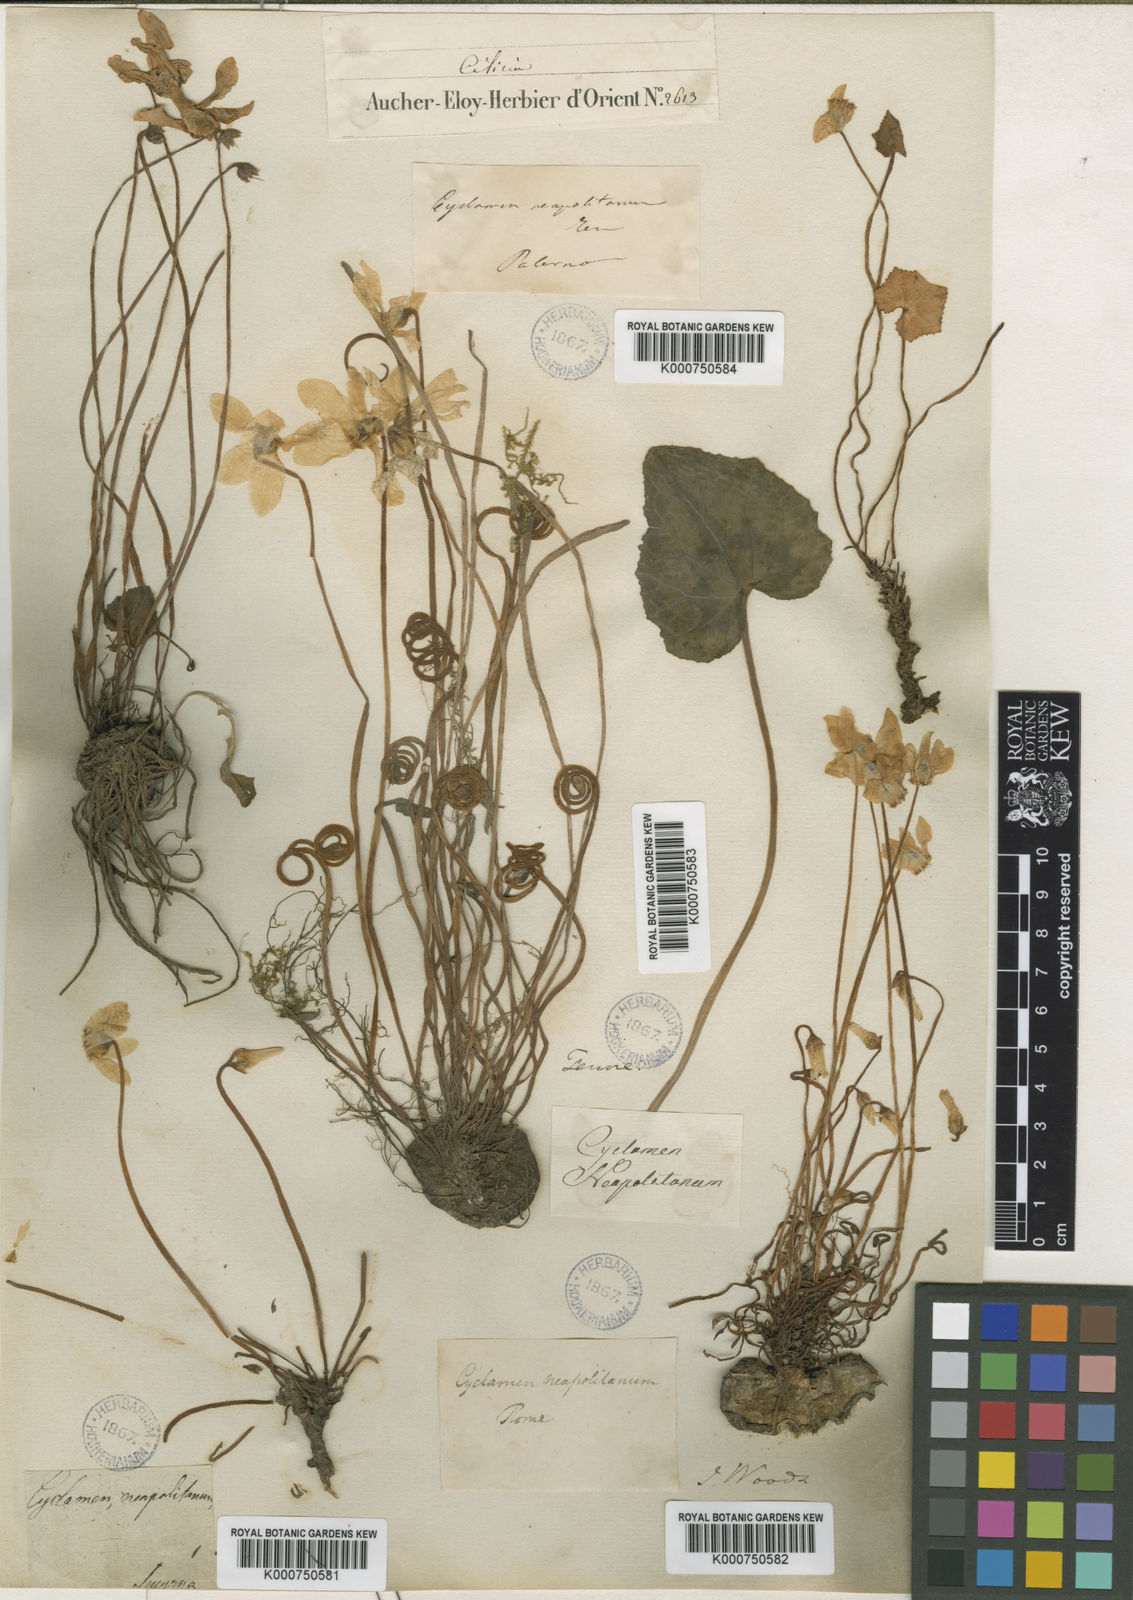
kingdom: Plantae
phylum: Tracheophyta
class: Magnoliopsida
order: Ericales
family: Primulaceae
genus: Cyclamen
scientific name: Cyclamen hederifolium
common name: Sowbread
